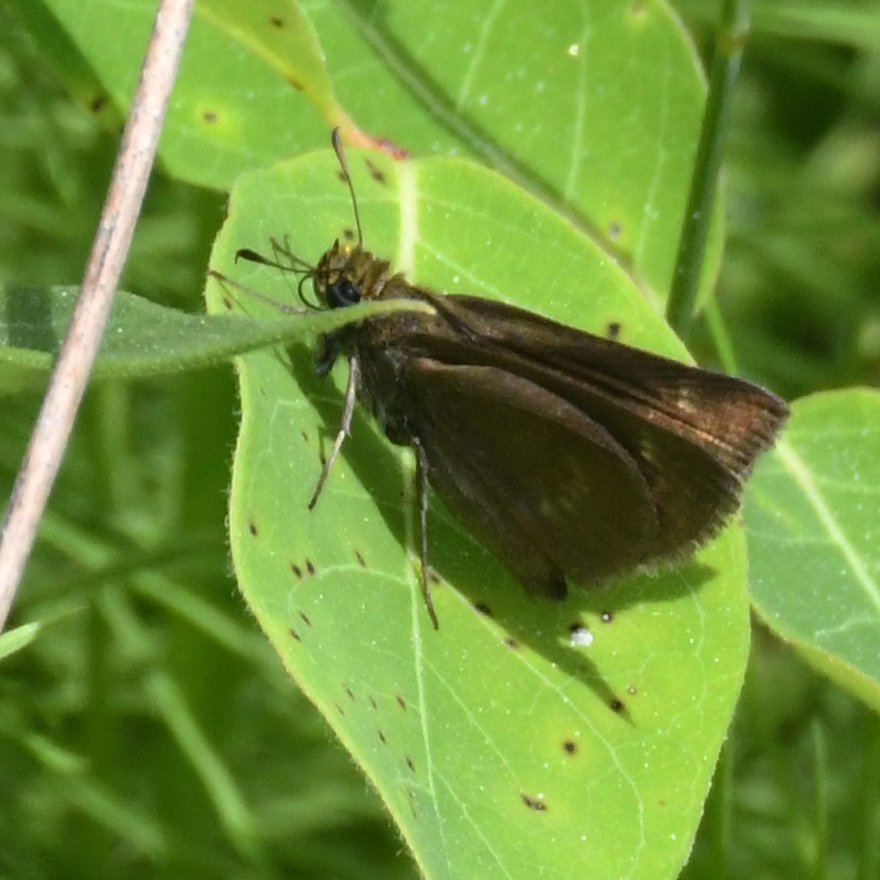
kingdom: Animalia
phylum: Arthropoda
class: Insecta
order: Lepidoptera
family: Hesperiidae
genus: Euphyes
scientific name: Euphyes vestris
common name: Dun Skipper
